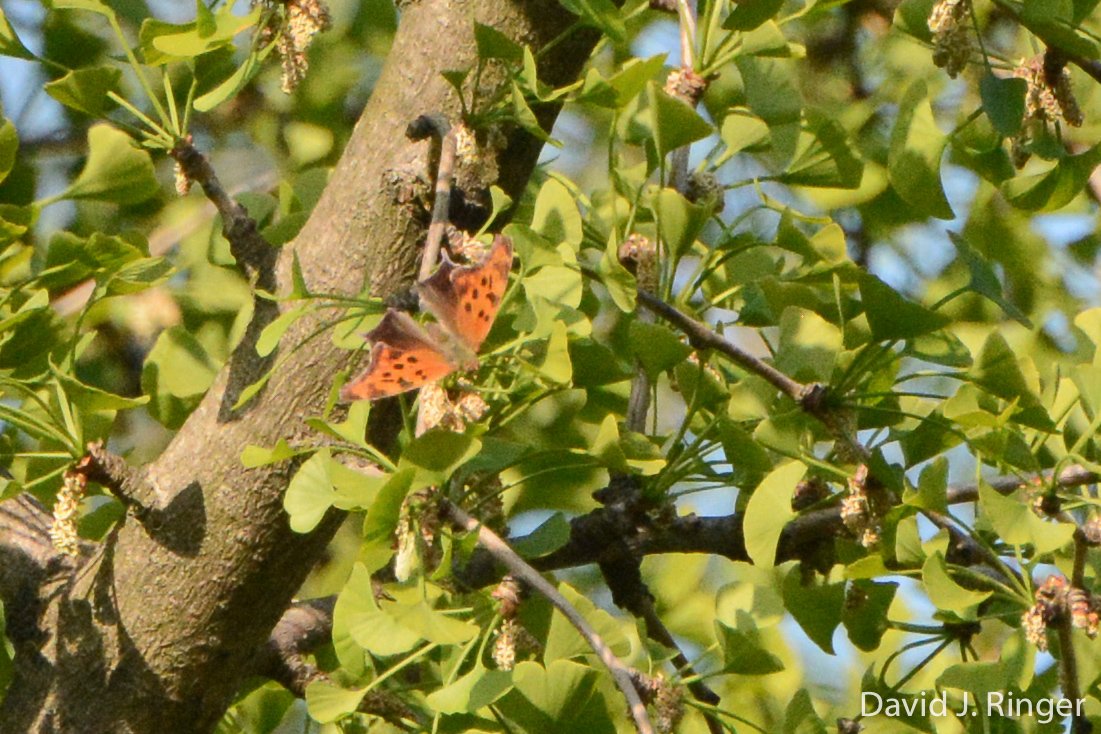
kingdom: Animalia
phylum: Arthropoda
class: Insecta
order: Lepidoptera
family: Nymphalidae
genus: Polygonia
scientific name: Polygonia interrogationis
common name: Question Mark
